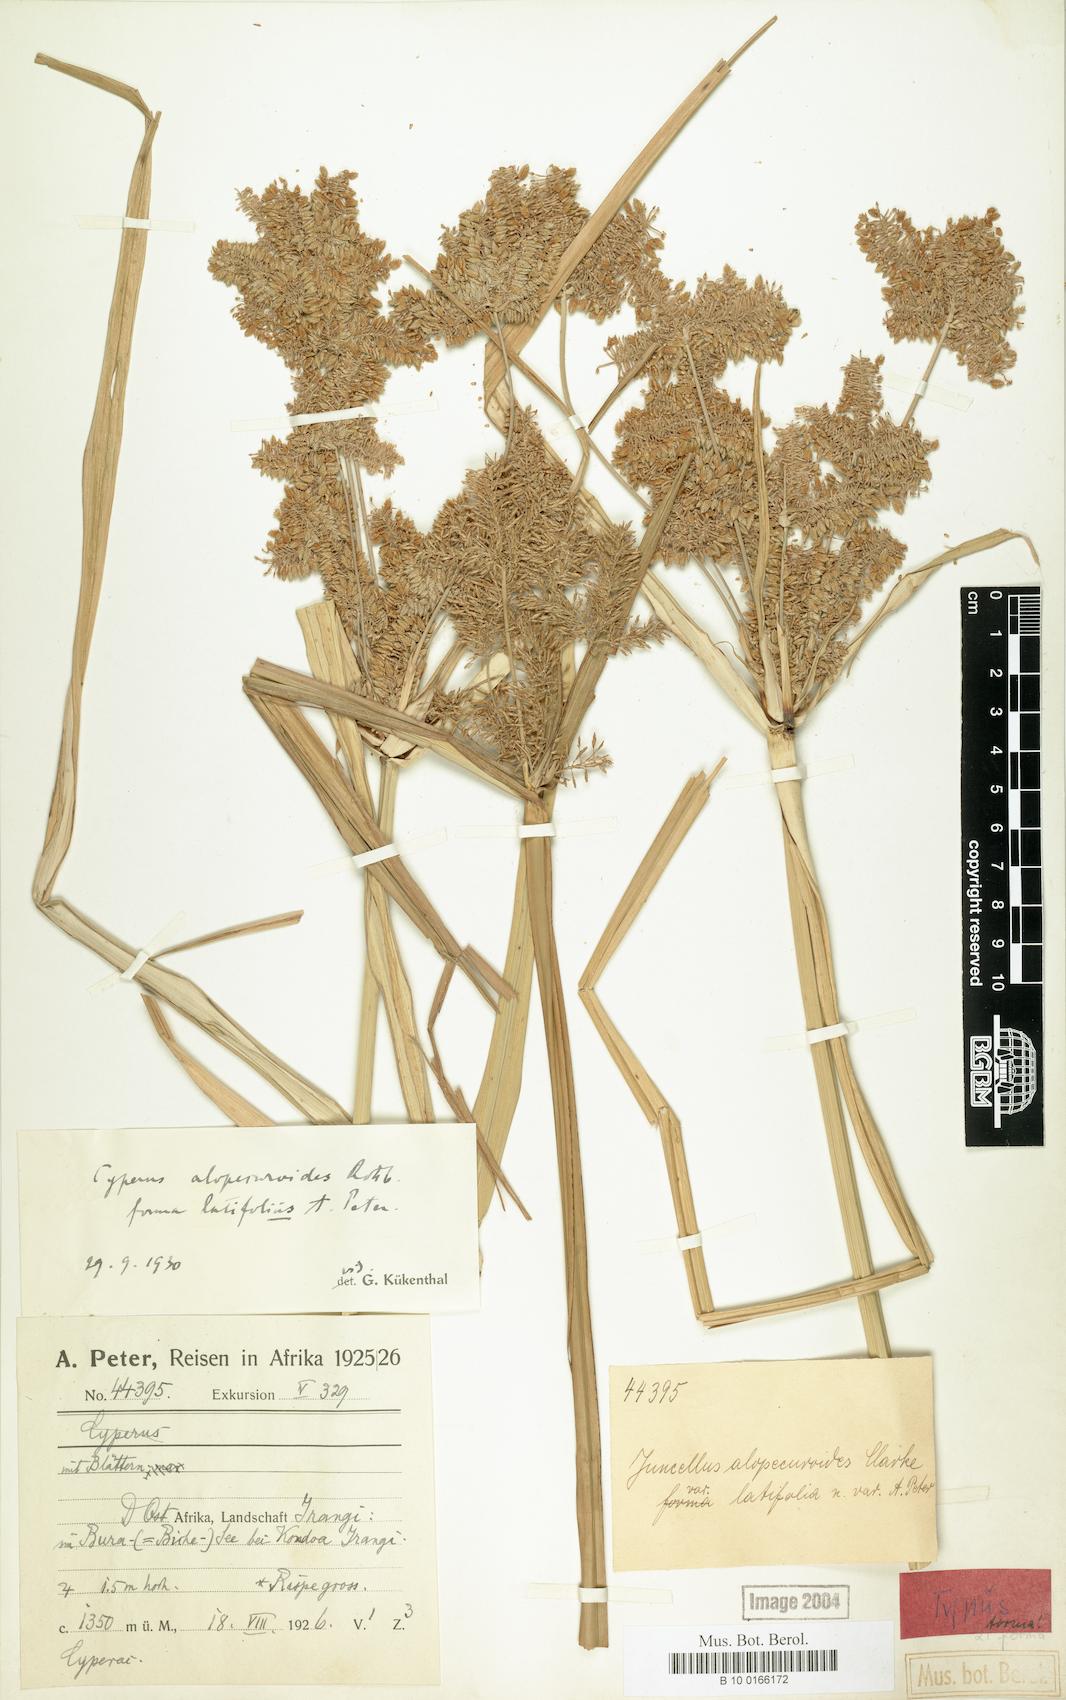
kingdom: Plantae
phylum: Tracheophyta
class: Liliopsida
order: Poales
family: Cyperaceae
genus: Cyperus
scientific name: Cyperus alopecuroides
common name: Foxtail flatsedge
